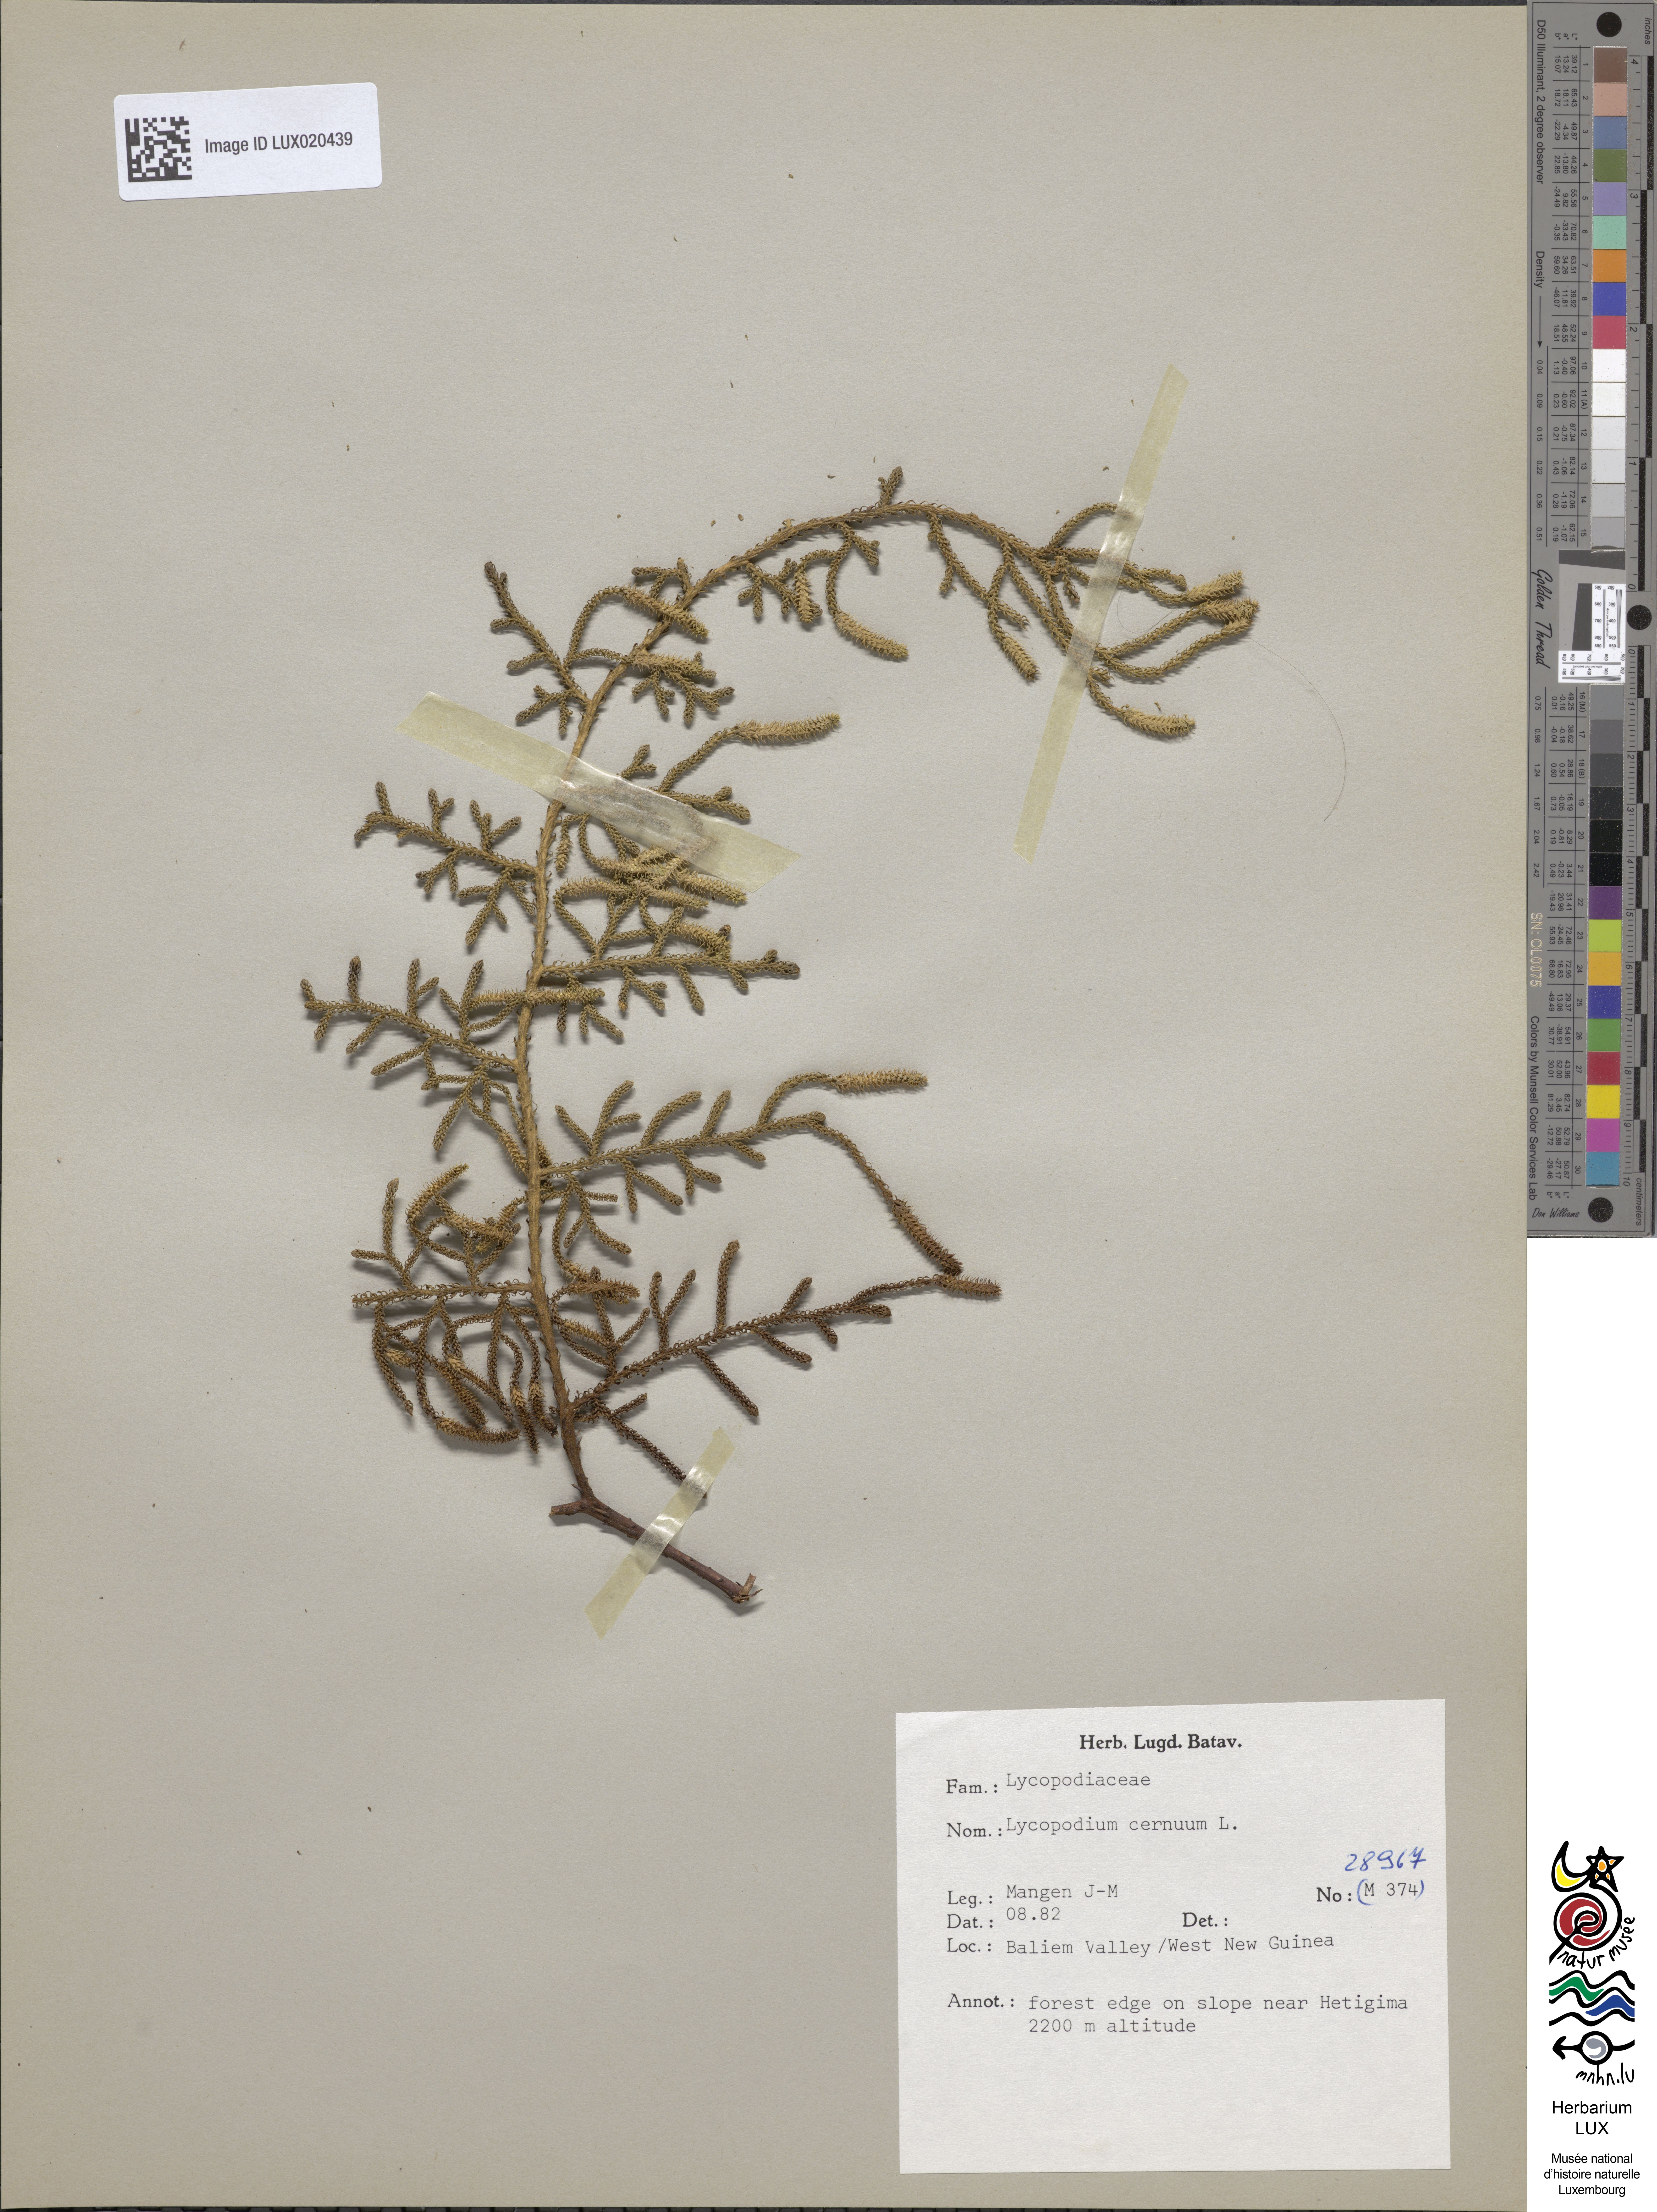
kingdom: Plantae
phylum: Tracheophyta
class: Lycopodiopsida
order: Lycopodiales
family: Lycopodiaceae
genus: Palhinhaea
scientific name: Palhinhaea cernua
